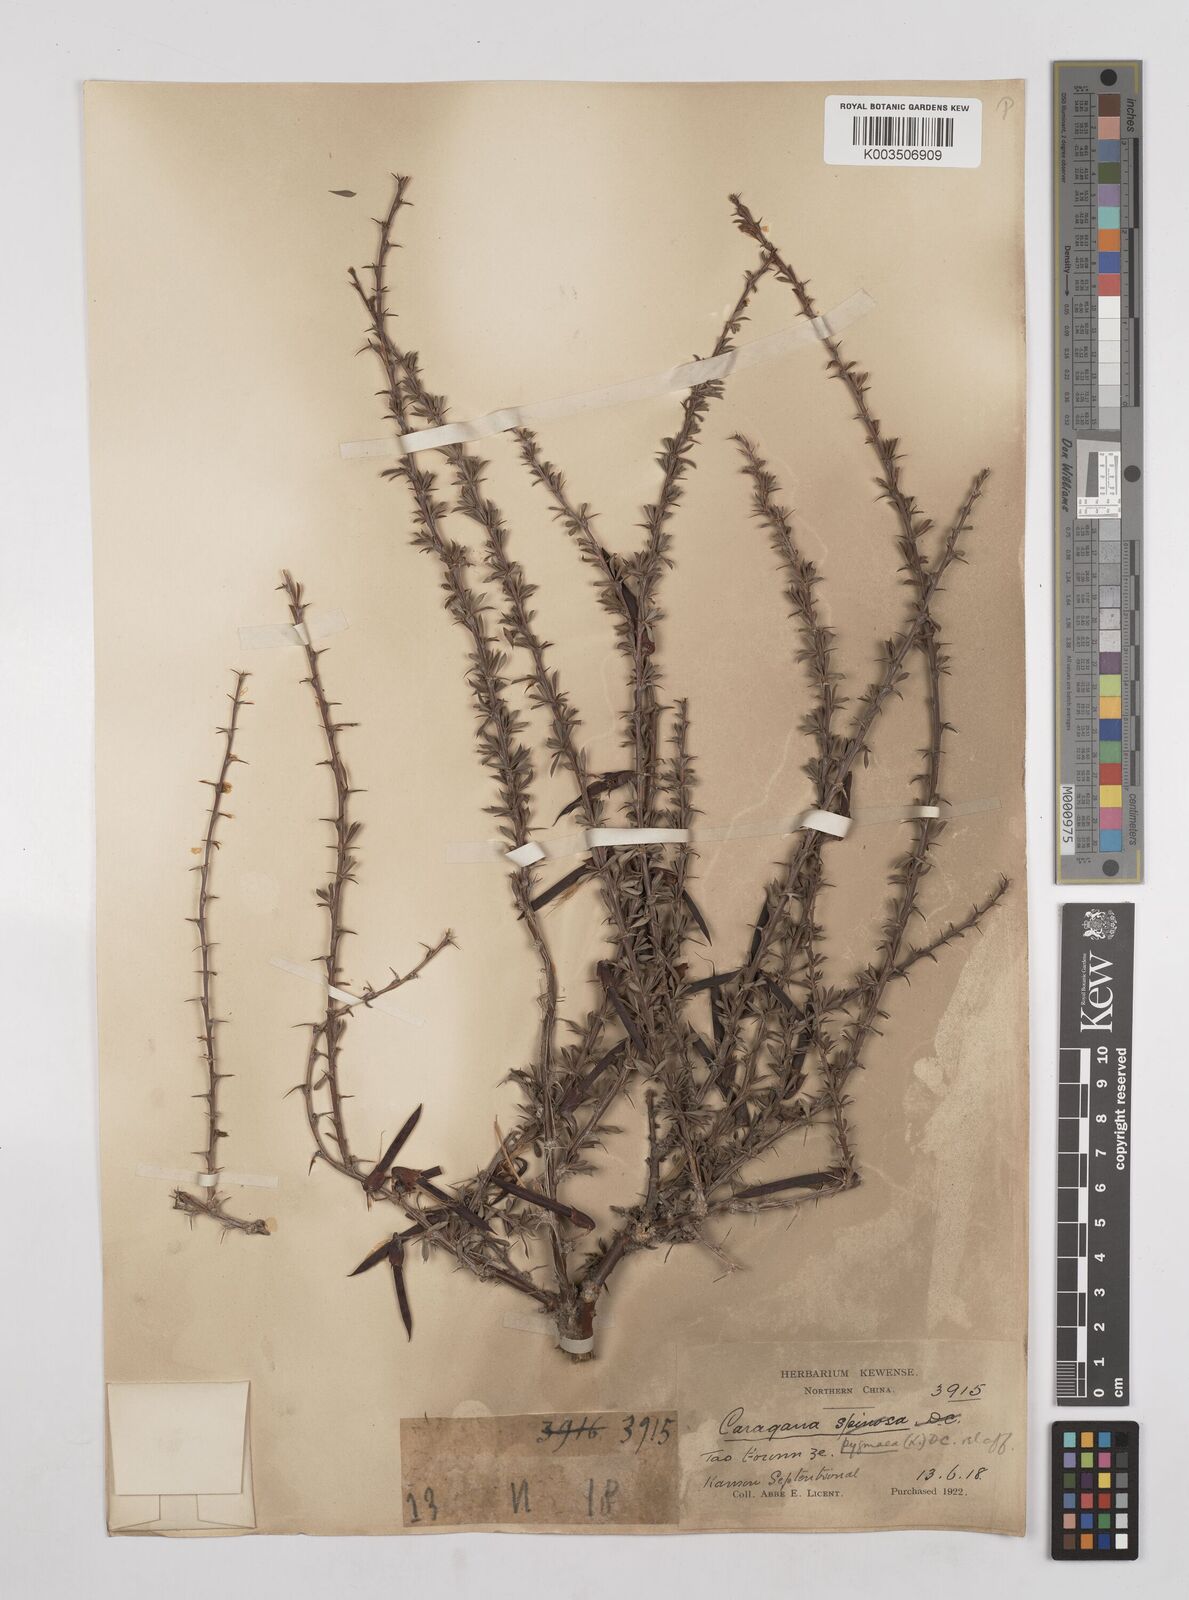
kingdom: Plantae
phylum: Tracheophyta
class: Magnoliopsida
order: Fabales
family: Fabaceae
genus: Caragana
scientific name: Caragana pygmaea
